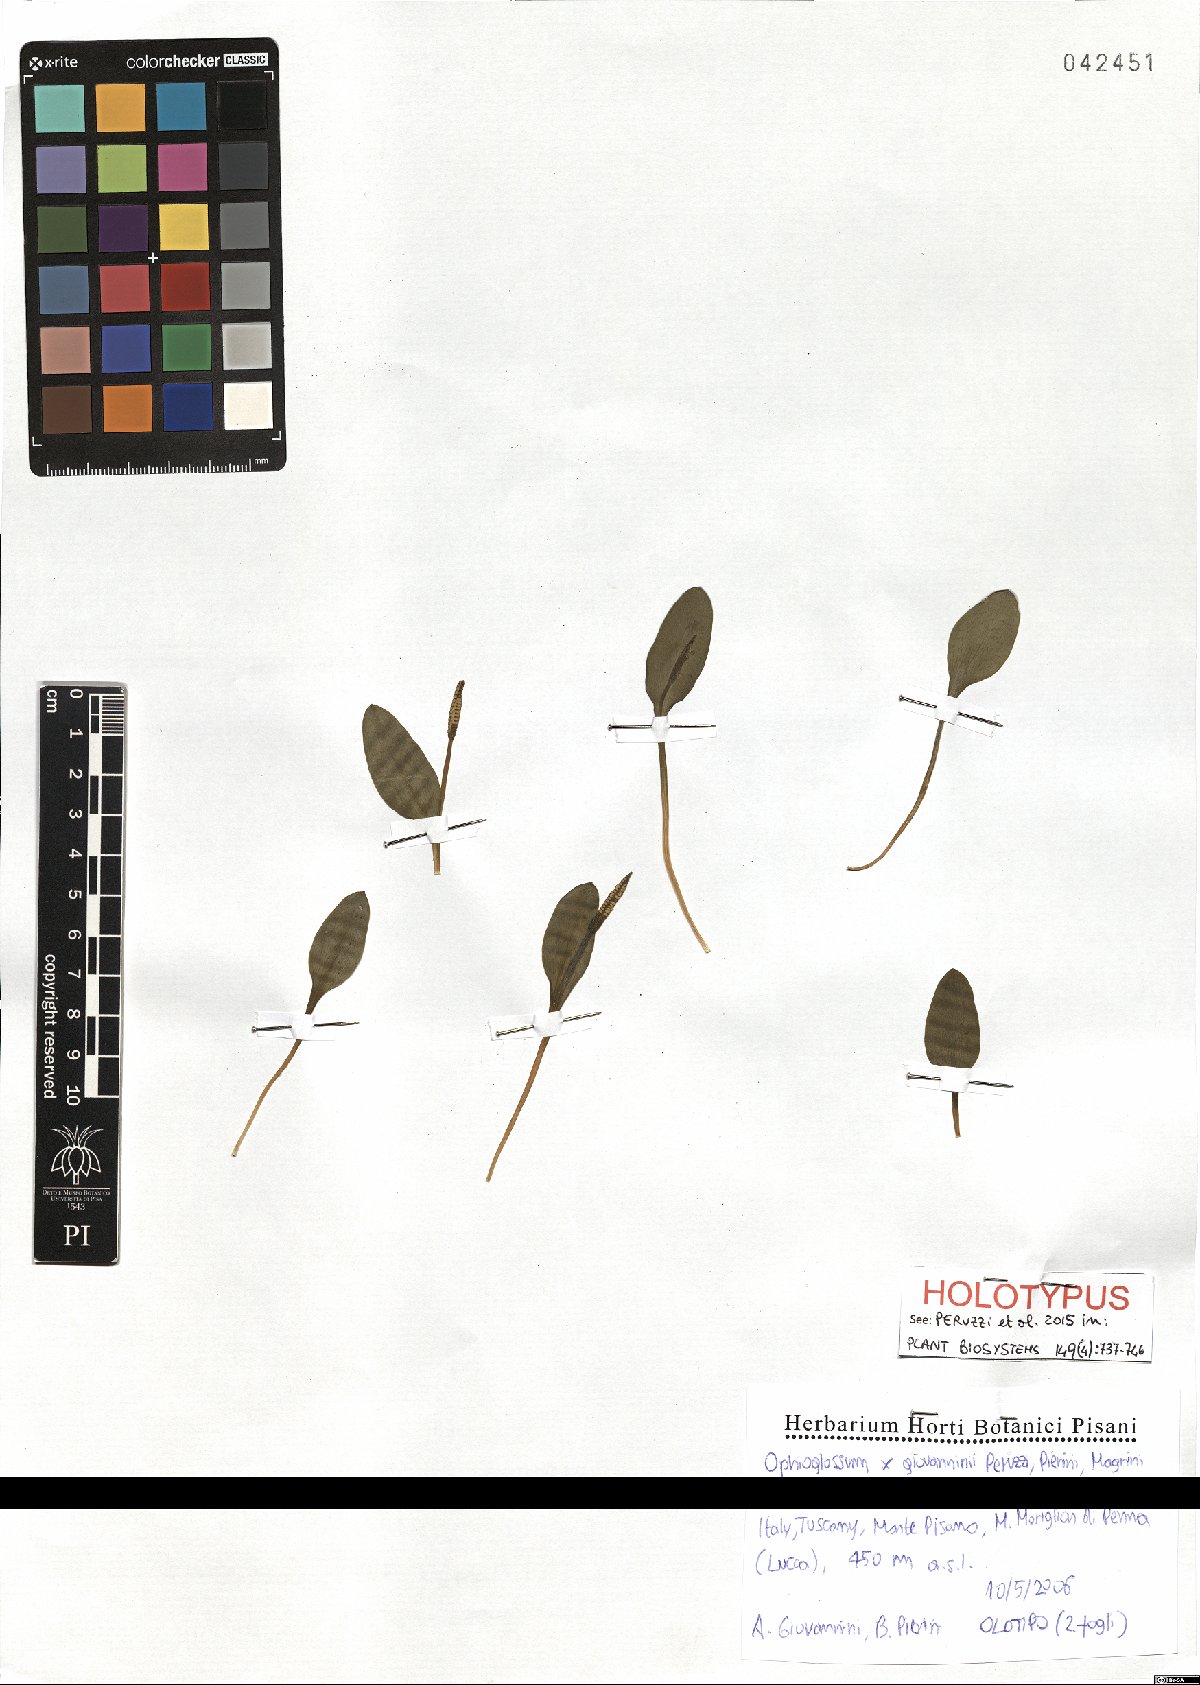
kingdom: Plantae
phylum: Tracheophyta
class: Polypodiopsida
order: Ophioglossales
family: Ophioglossaceae
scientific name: Ophioglossaceae
